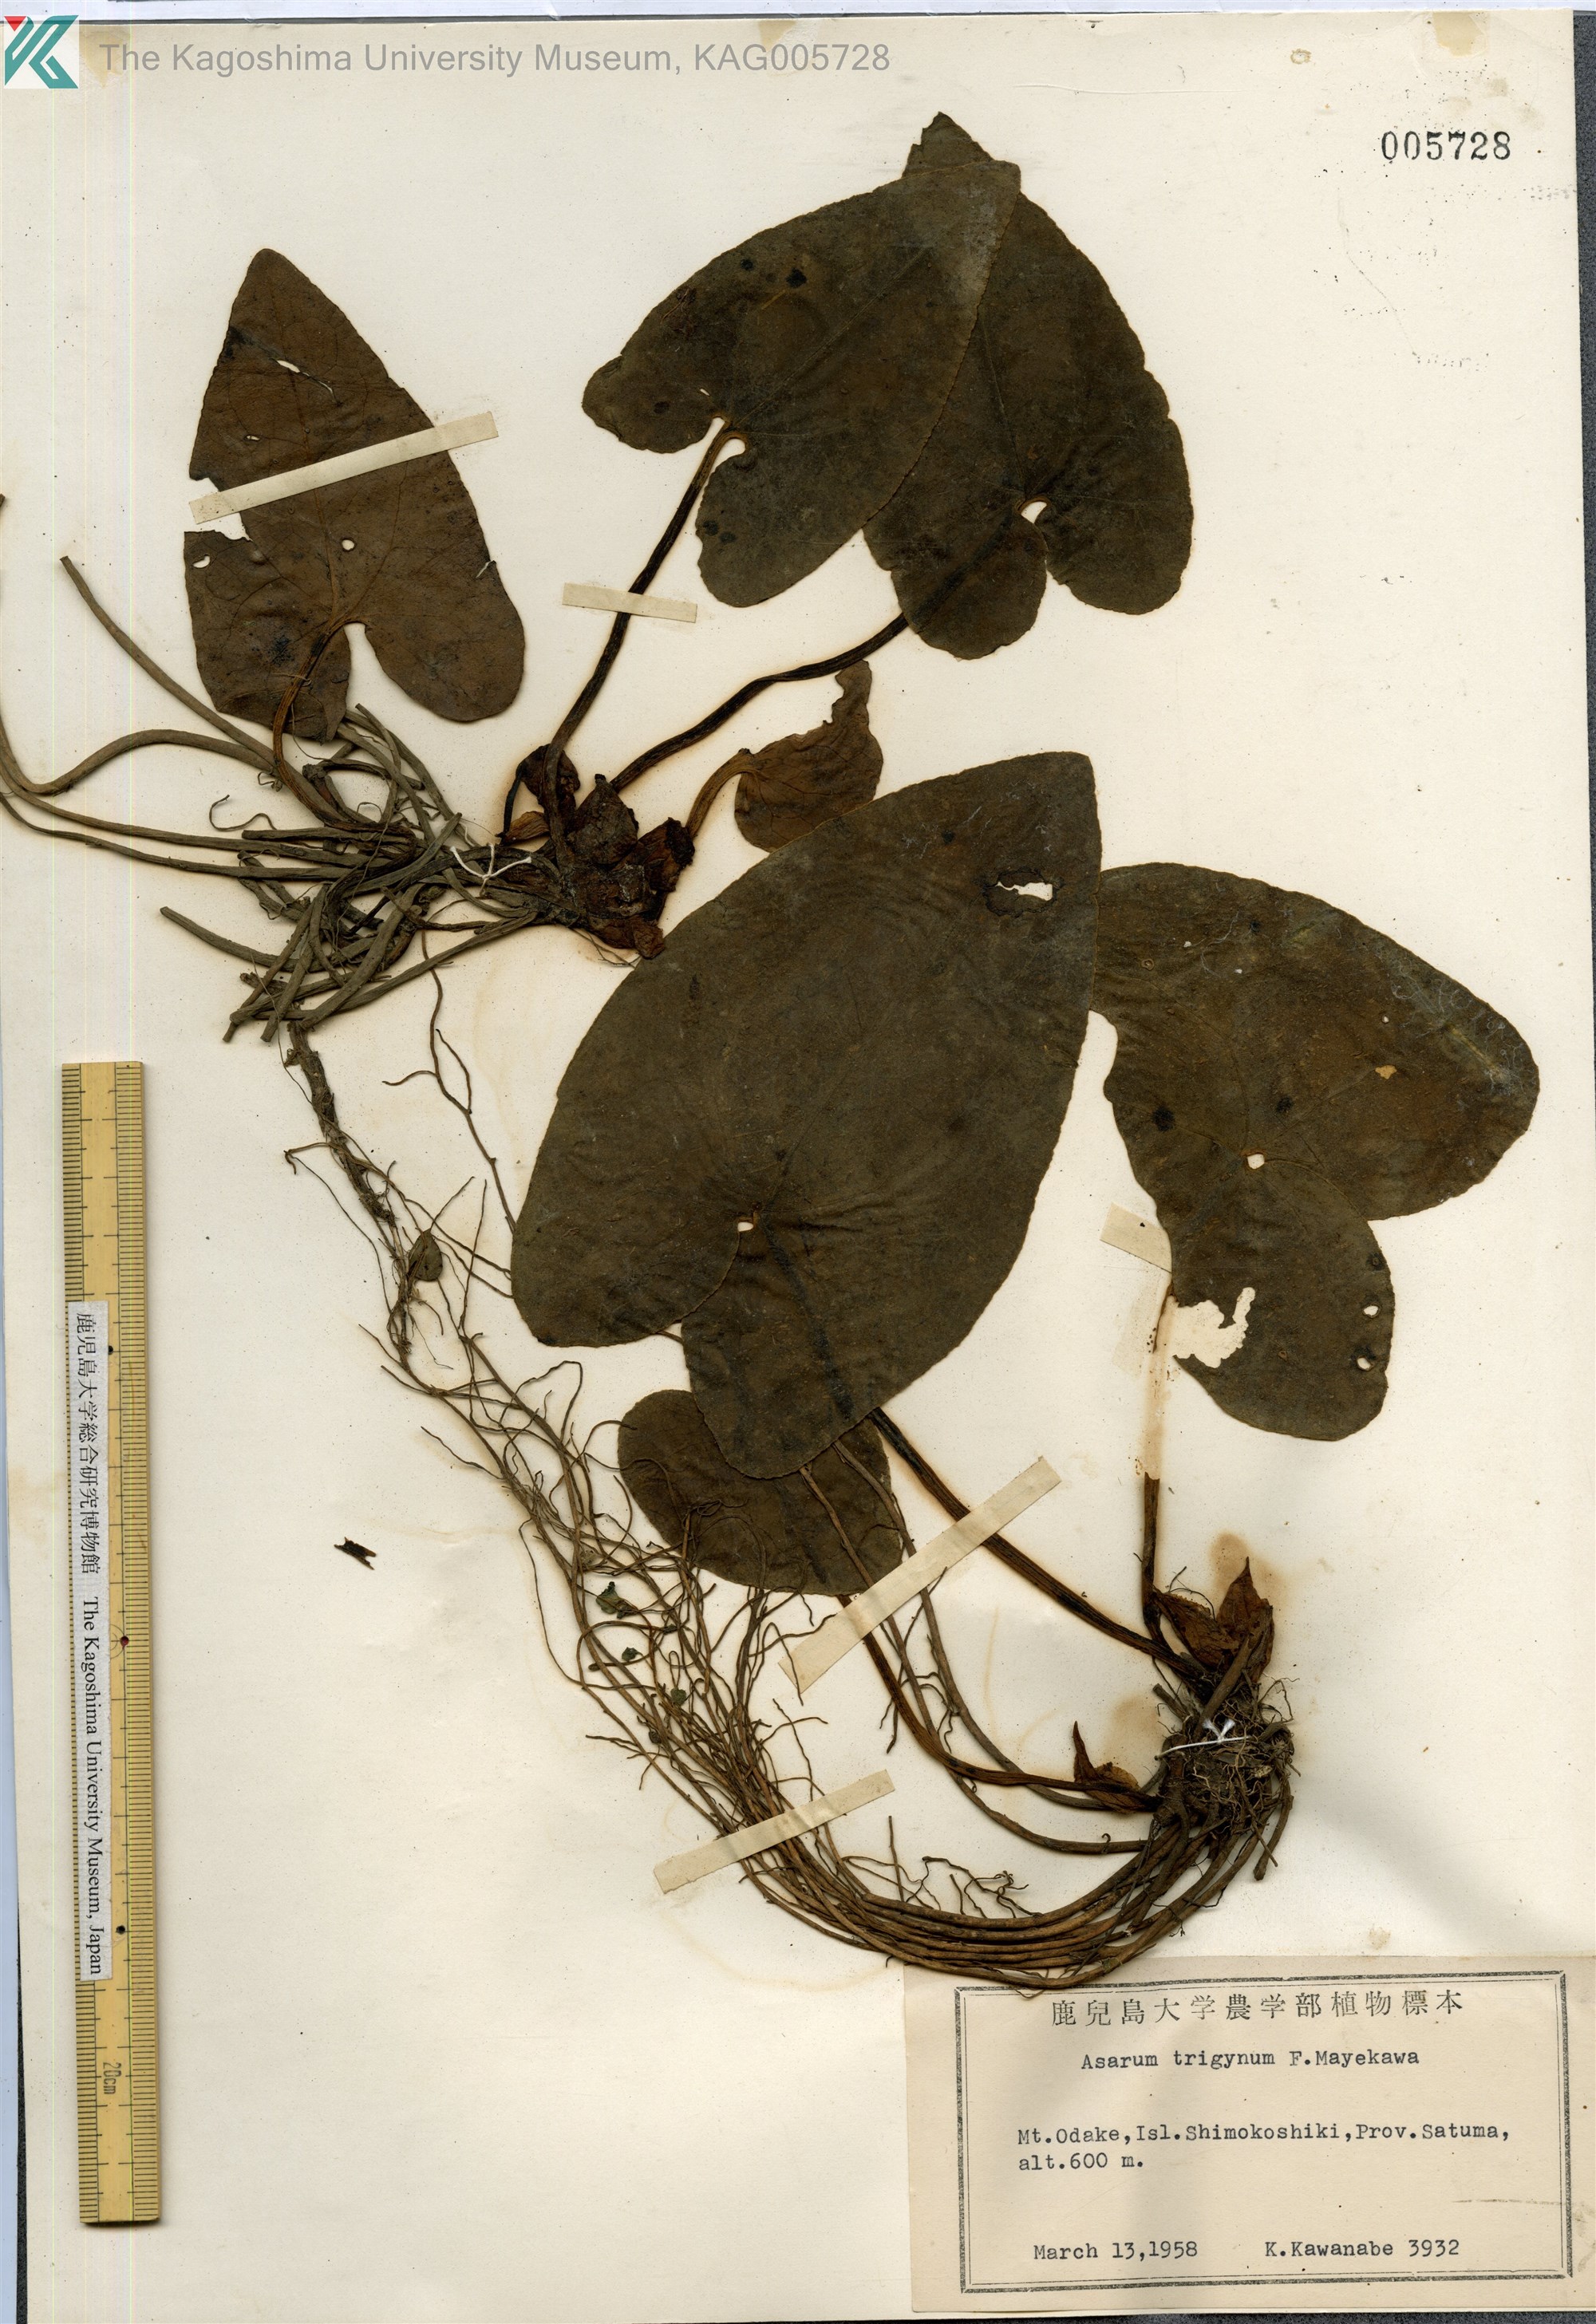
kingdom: Plantae
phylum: Tracheophyta
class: Magnoliopsida
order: Piperales
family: Aristolochiaceae
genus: Asarum
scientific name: Asarum trigynum
